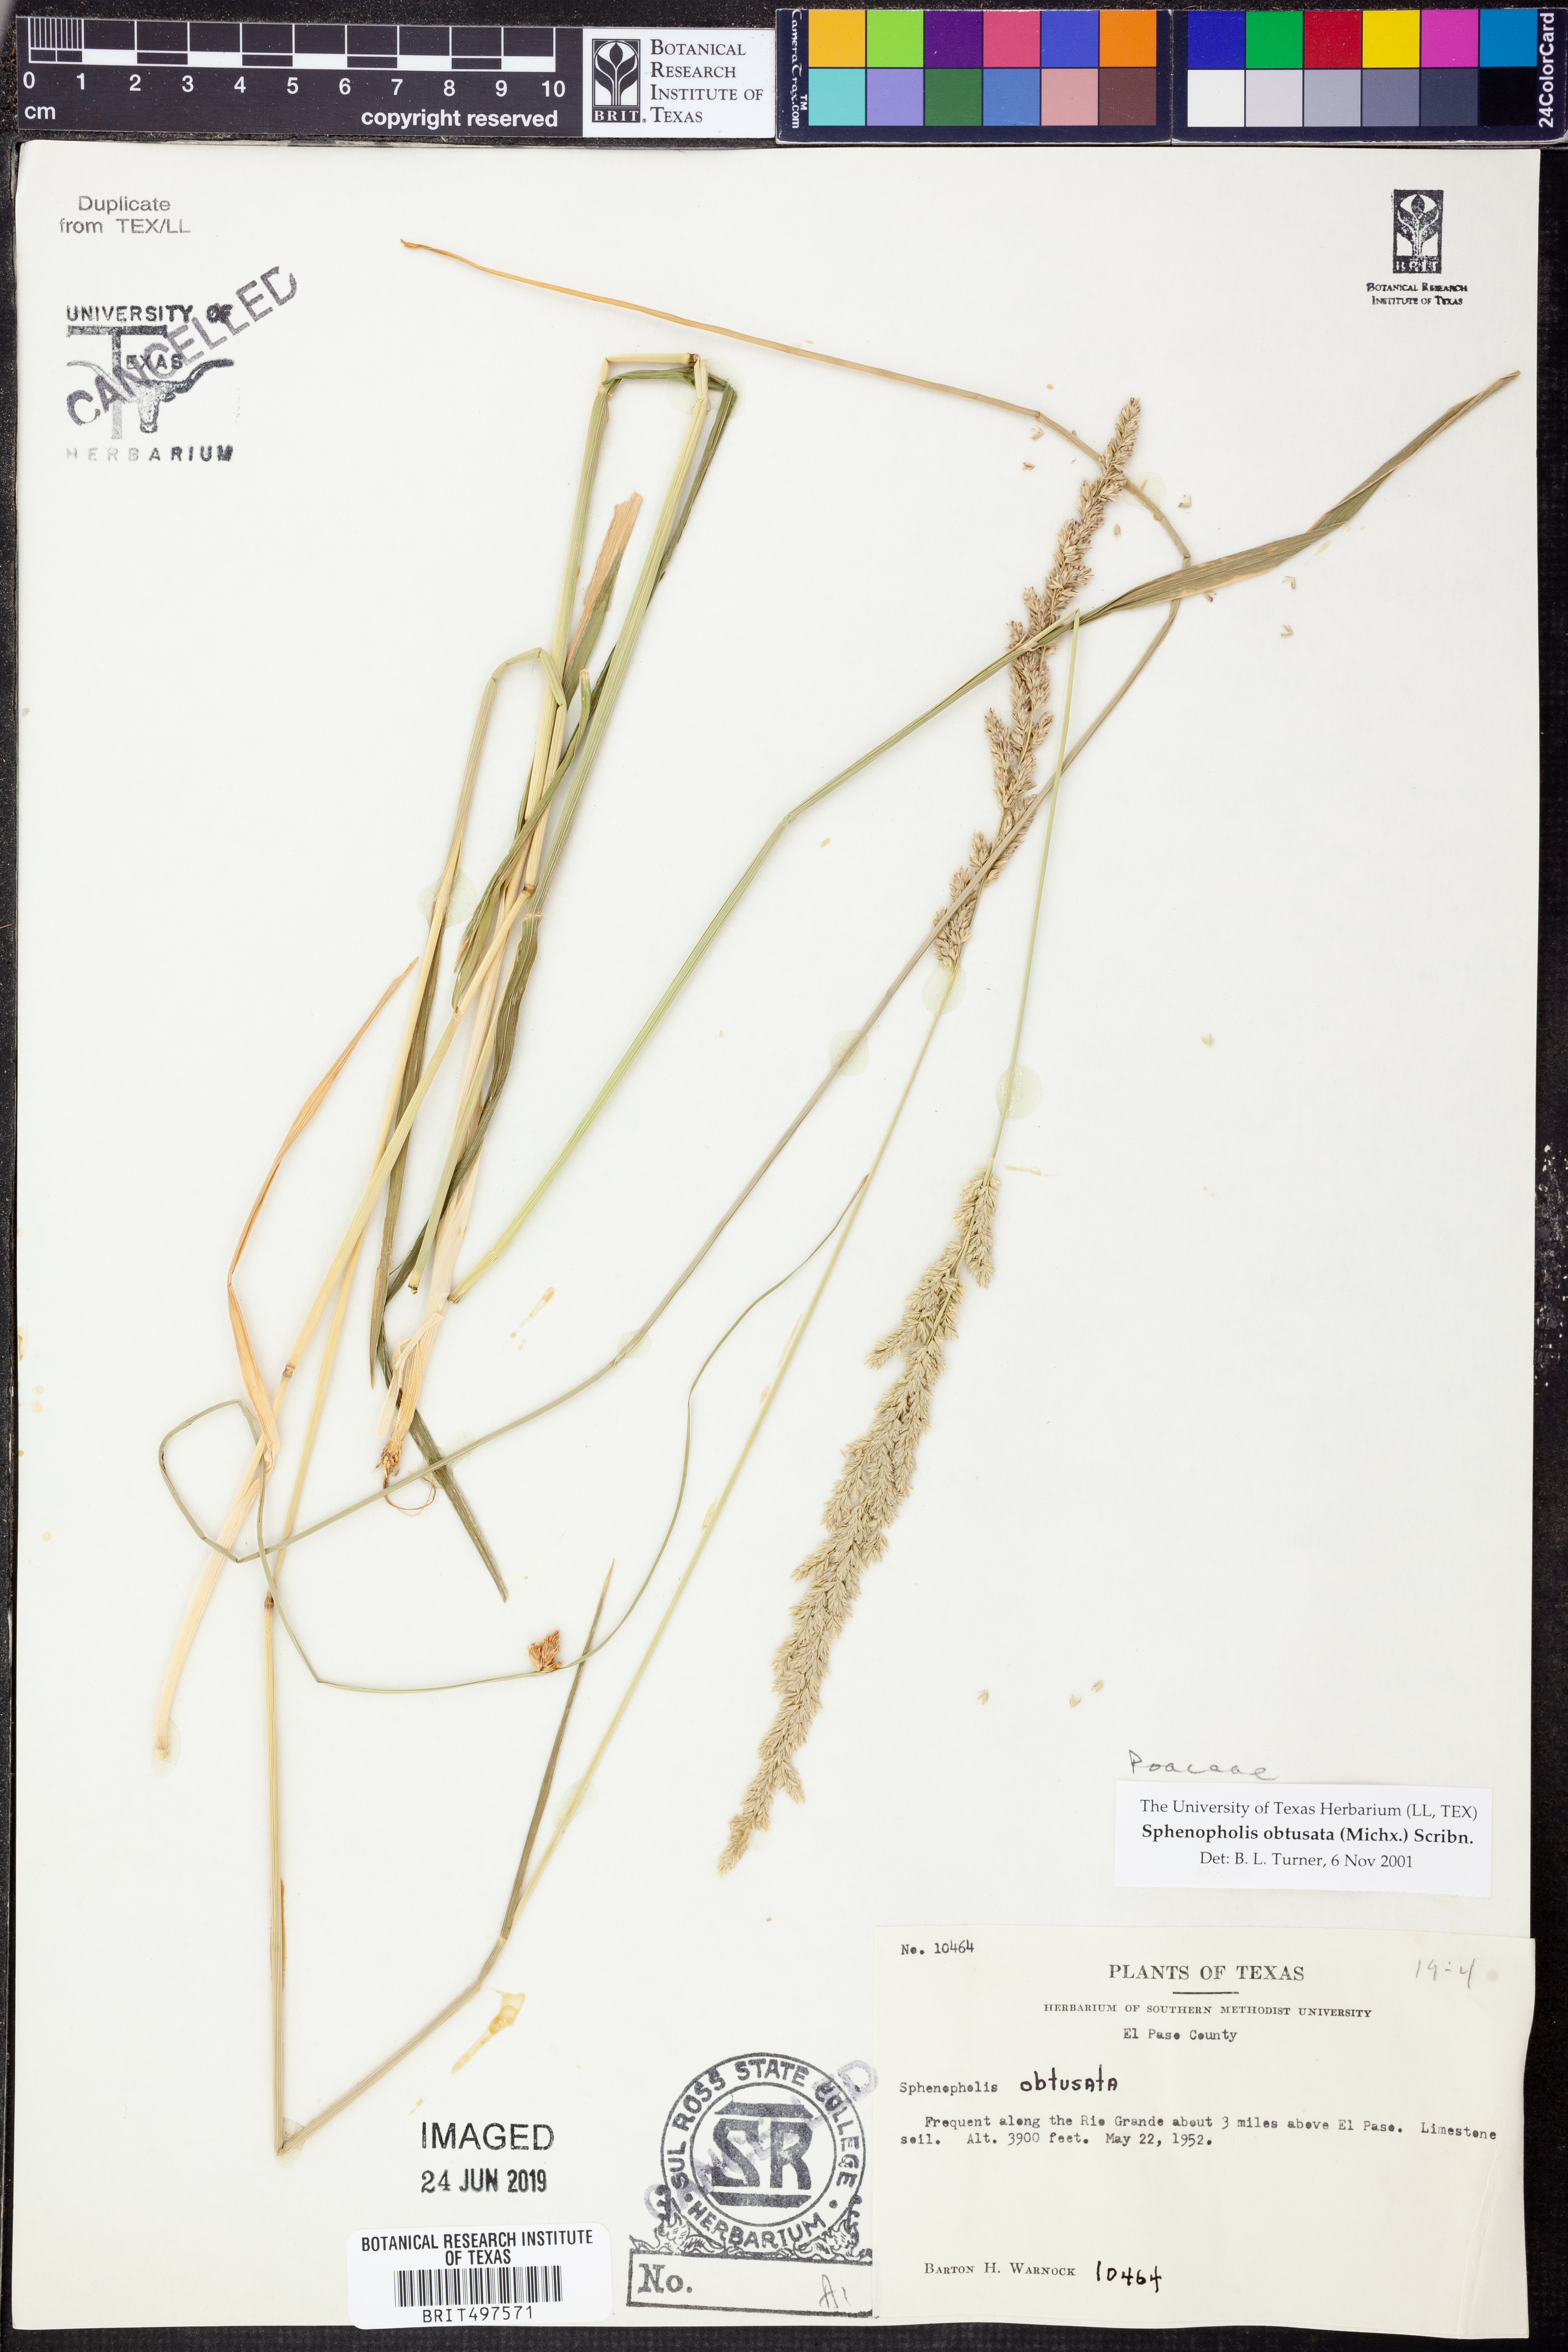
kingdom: Plantae
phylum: Tracheophyta
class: Liliopsida
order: Poales
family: Poaceae
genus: Sphenopholis
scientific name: Sphenopholis obtusata
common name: Prairie grass
